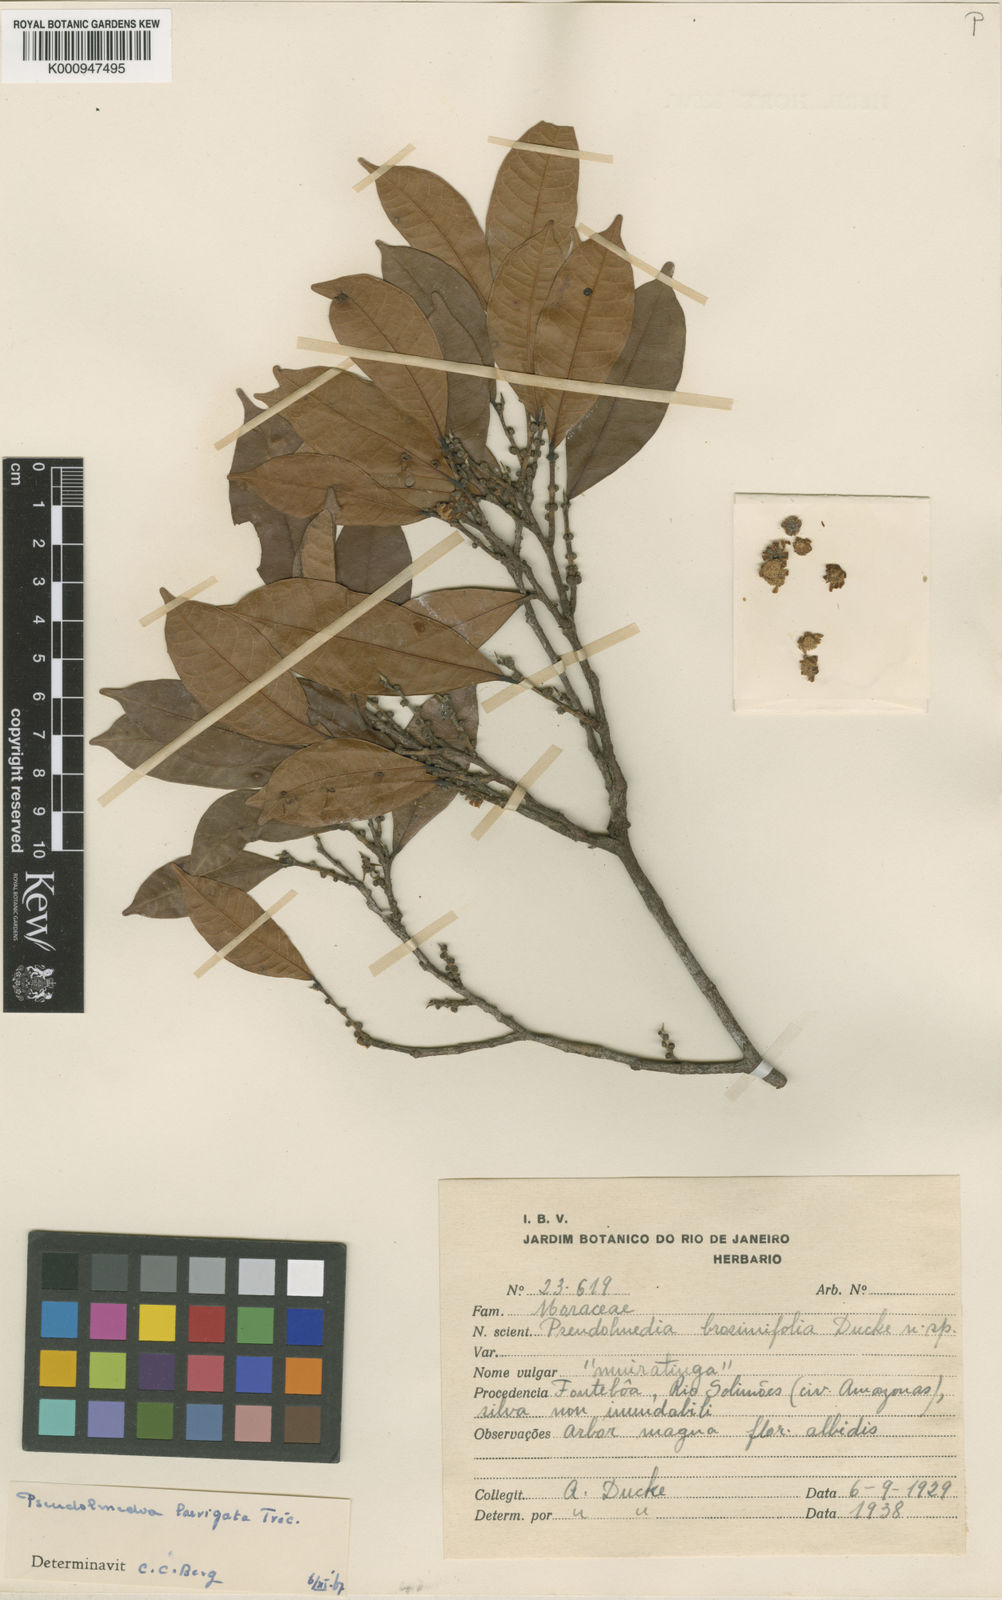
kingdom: Plantae
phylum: Tracheophyta
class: Magnoliopsida
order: Rosales
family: Moraceae
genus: Pseudolmedia
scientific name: Pseudolmedia
